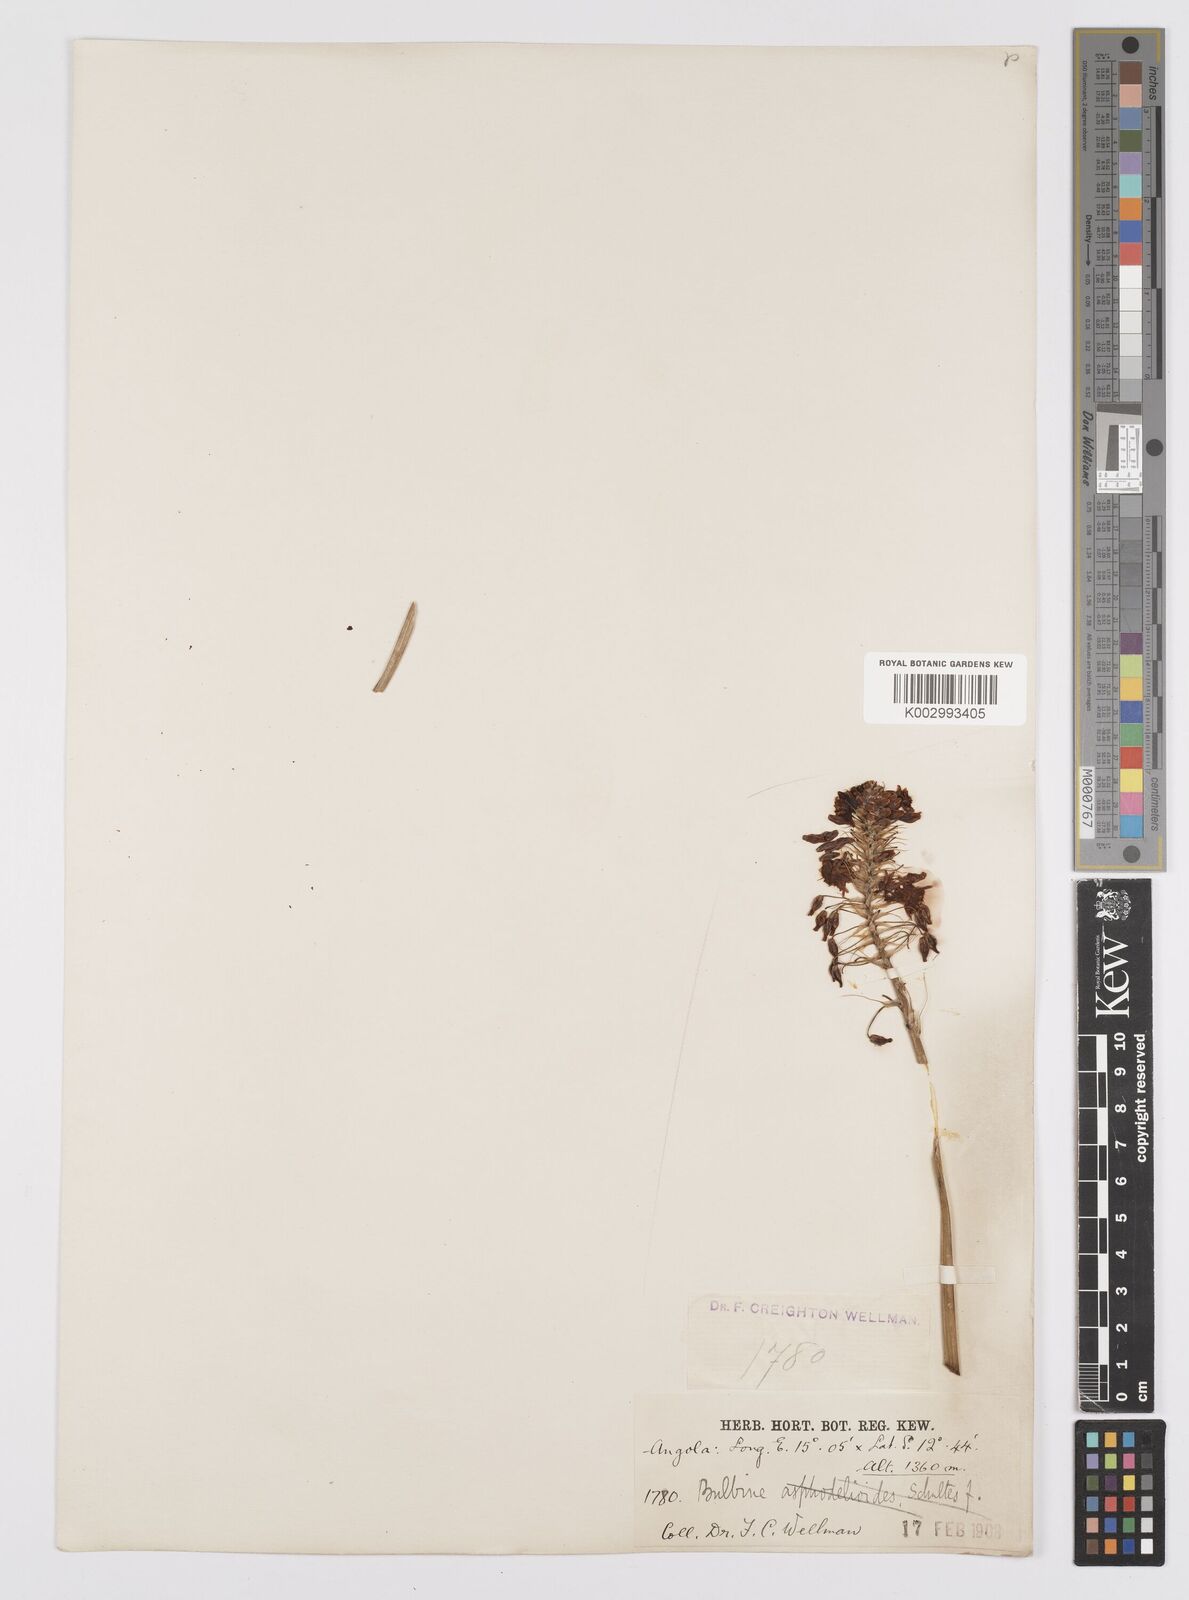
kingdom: Plantae
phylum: Tracheophyta
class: Liliopsida
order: Asparagales
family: Asphodelaceae
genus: Bulbine
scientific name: Bulbine abyssinica
